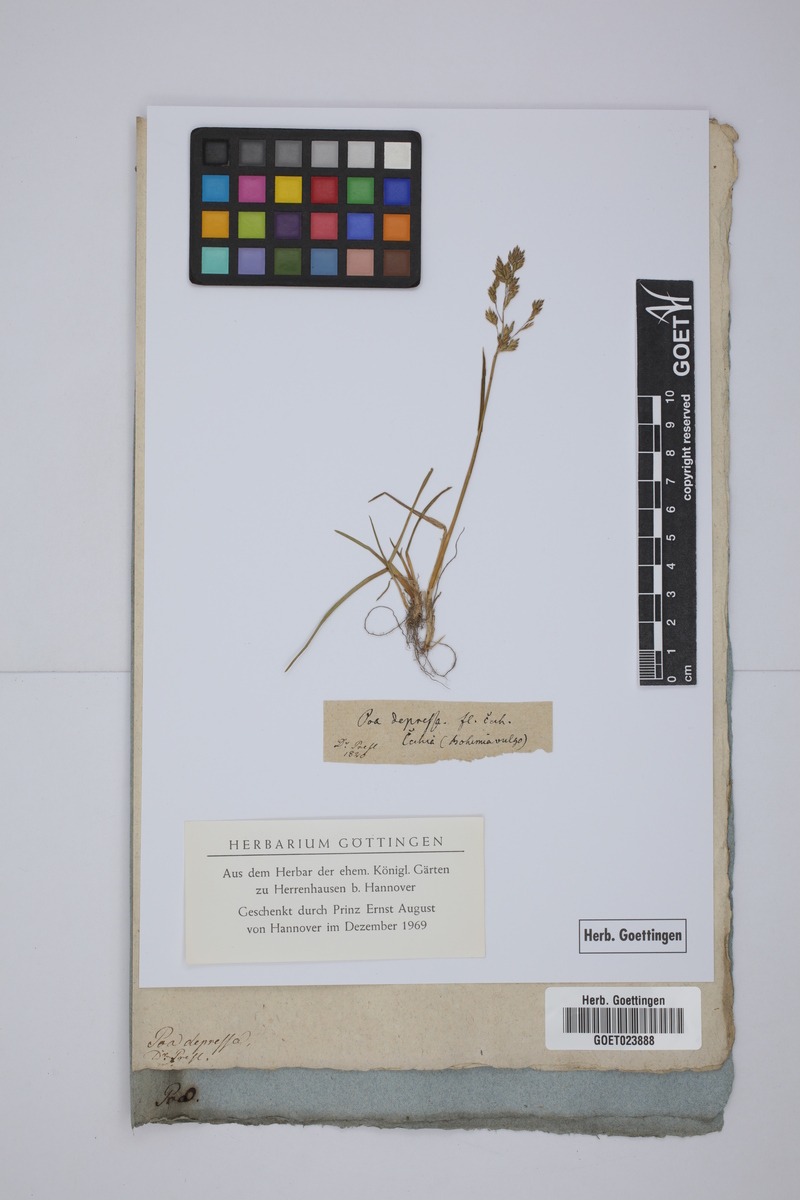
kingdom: Plantae
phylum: Tracheophyta
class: Liliopsida
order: Poales
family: Poaceae
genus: Poa
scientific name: Poa humilis
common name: Spreading meadow-grass
